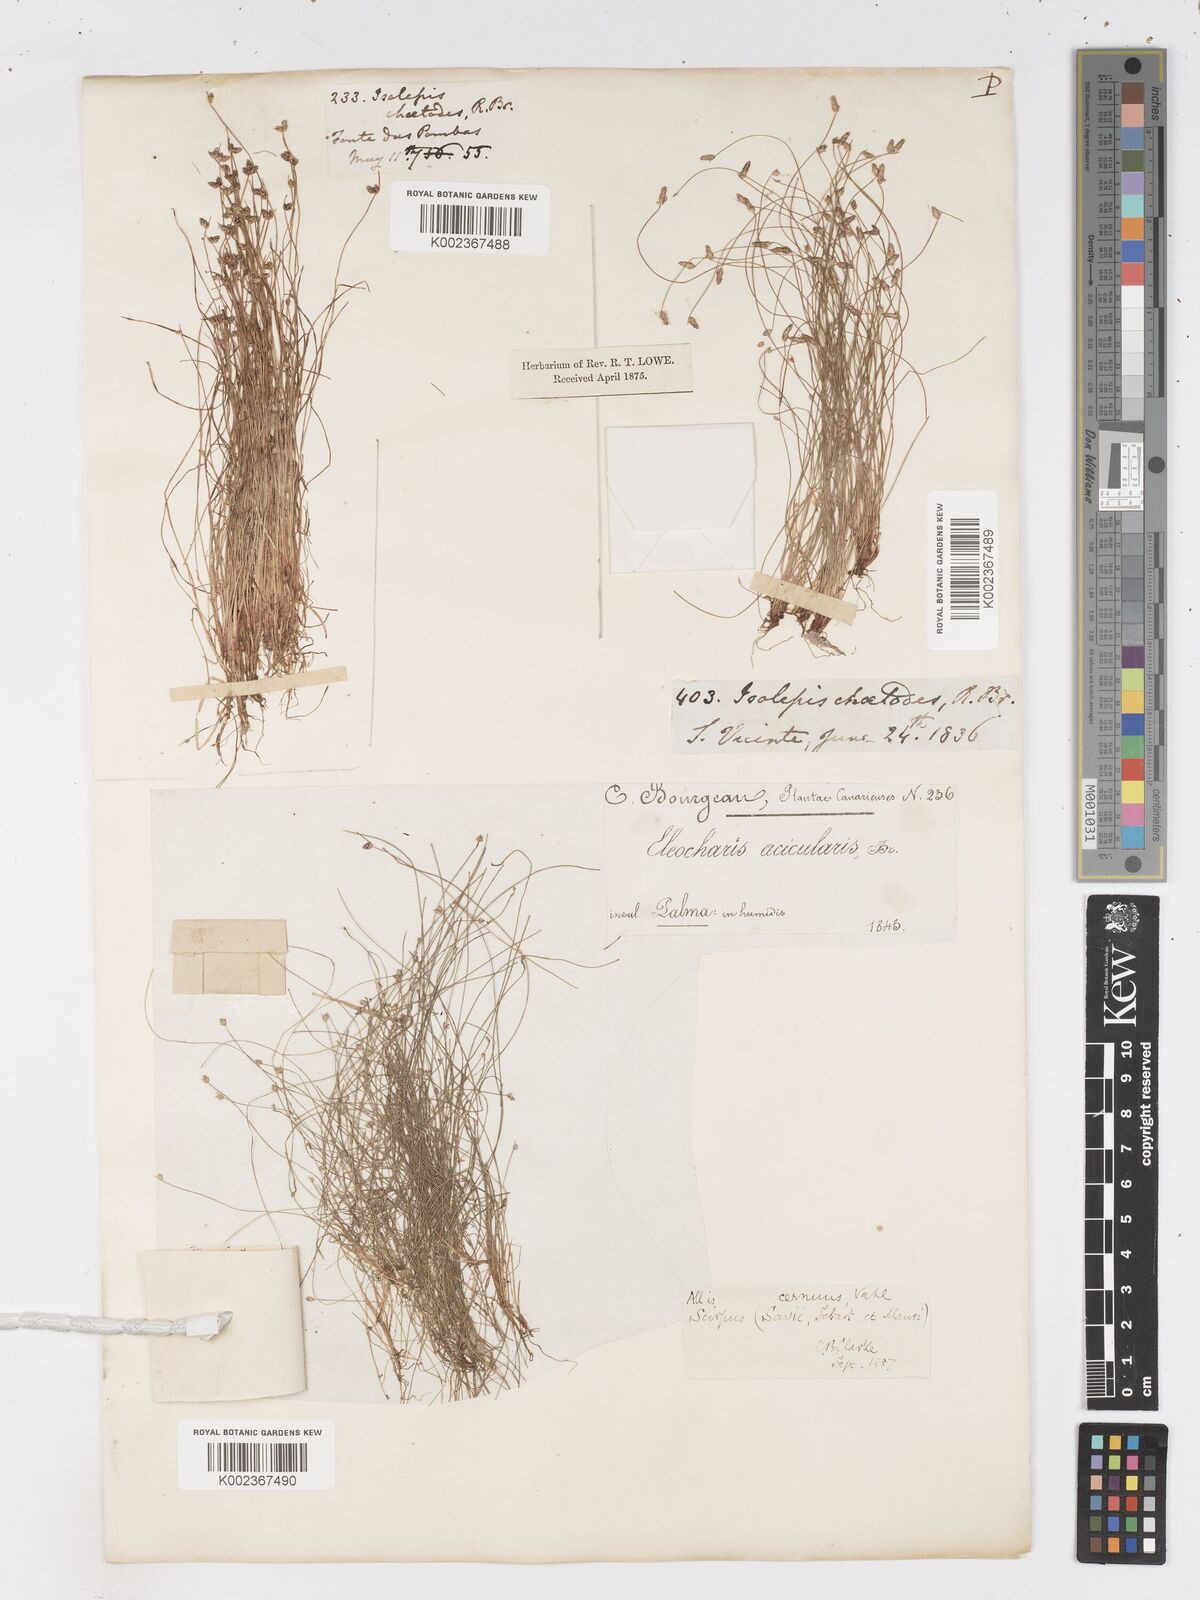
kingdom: Plantae
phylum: Tracheophyta
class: Liliopsida
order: Poales
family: Cyperaceae
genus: Isolepis
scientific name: Isolepis cernua
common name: Slender club-rush
